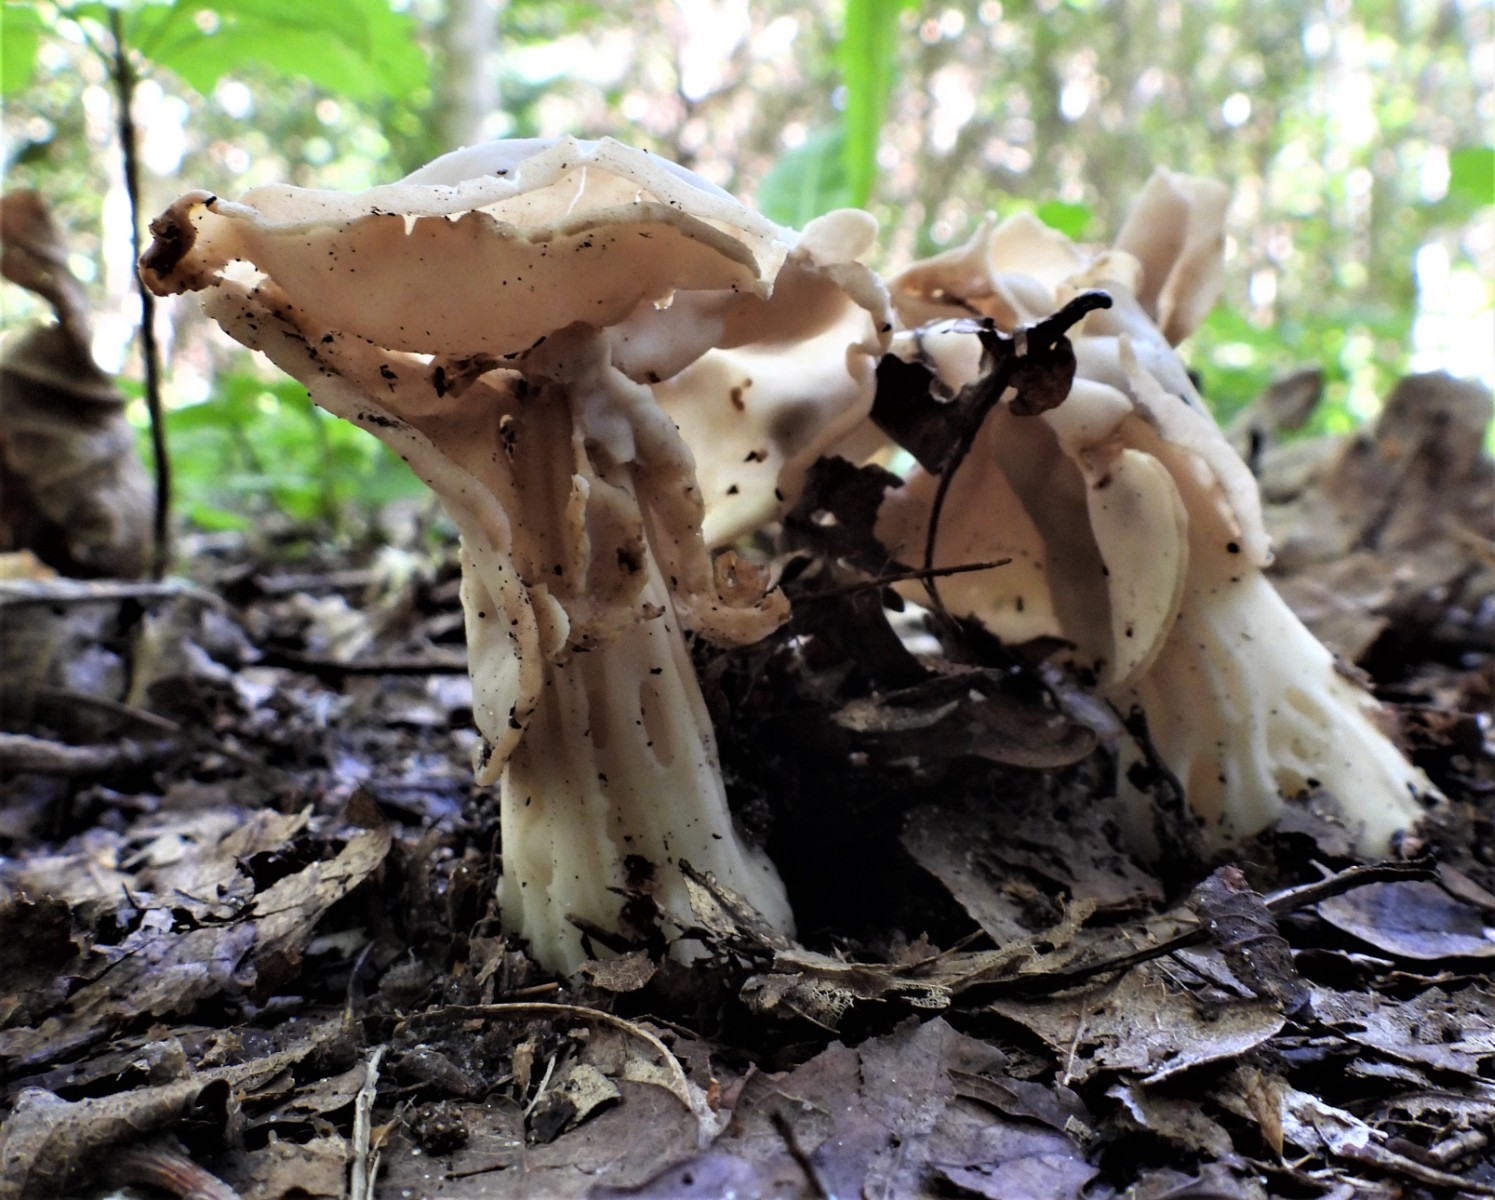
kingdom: Fungi
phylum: Ascomycota
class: Pezizomycetes
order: Pezizales
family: Helvellaceae
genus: Helvella
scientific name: Helvella crispa
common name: kruset foldhat
